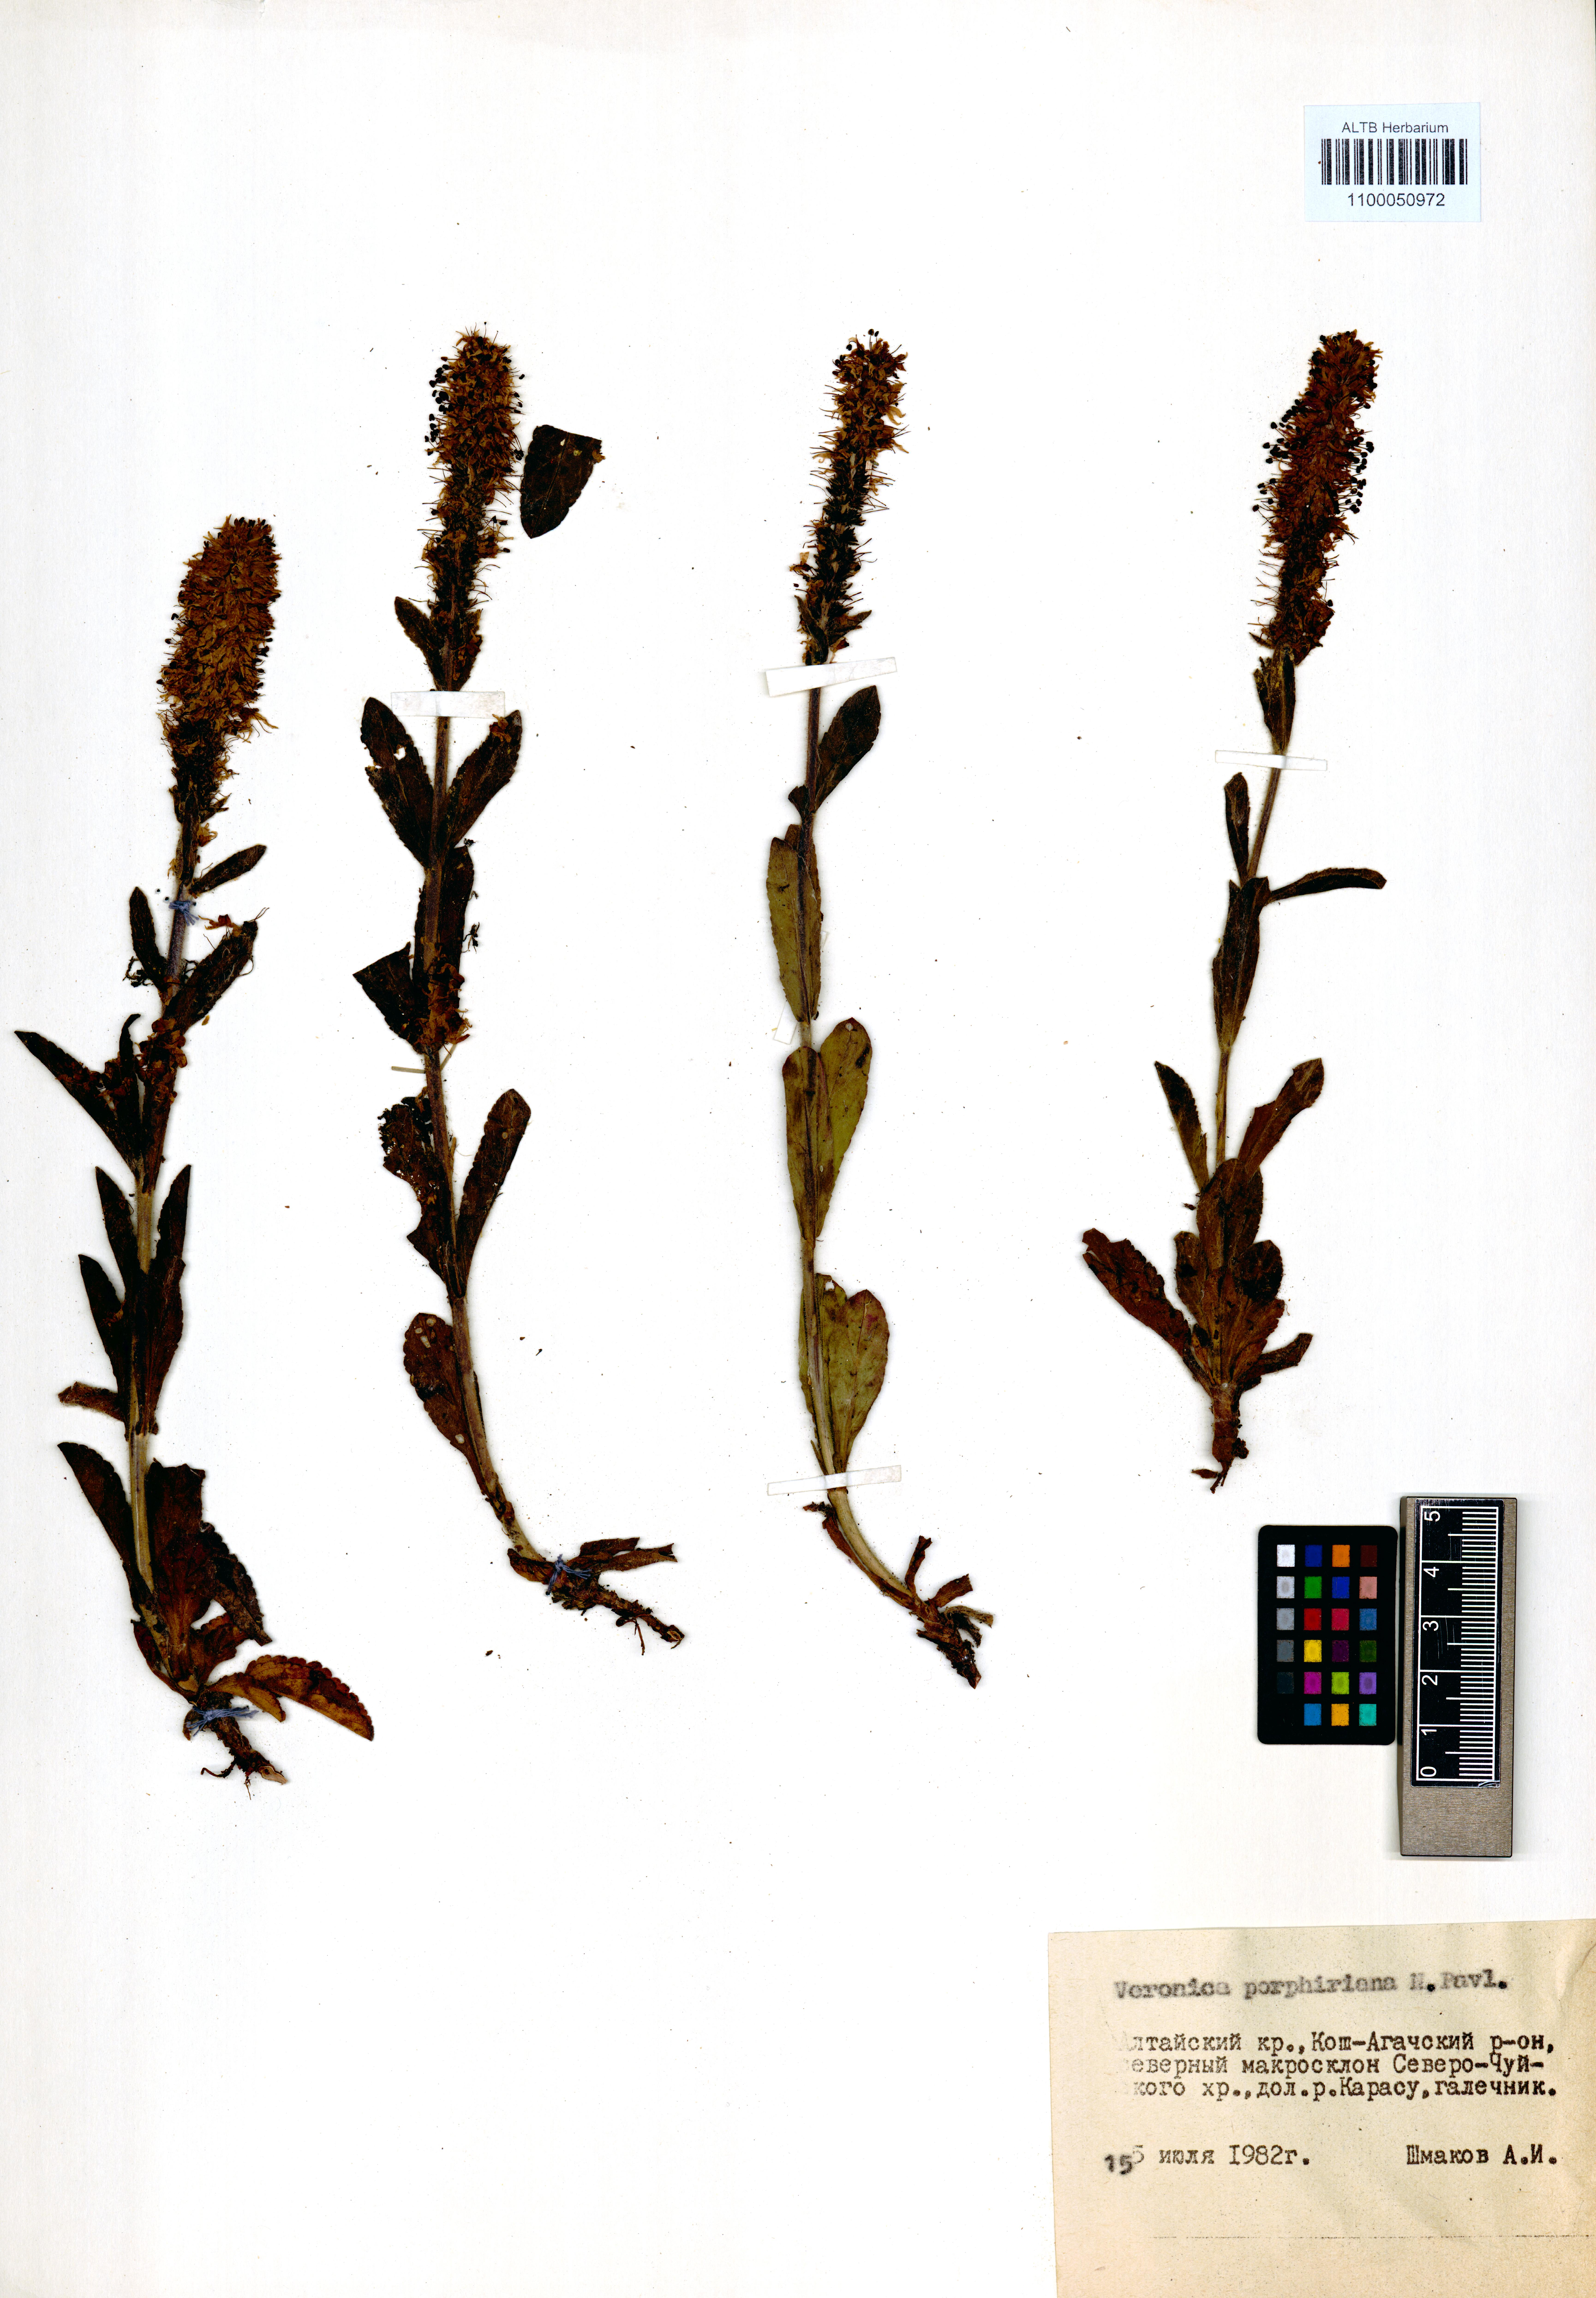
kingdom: Plantae
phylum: Tracheophyta
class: Magnoliopsida
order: Lamiales
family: Plantaginaceae
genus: Veronica
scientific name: Veronica porphyriana
